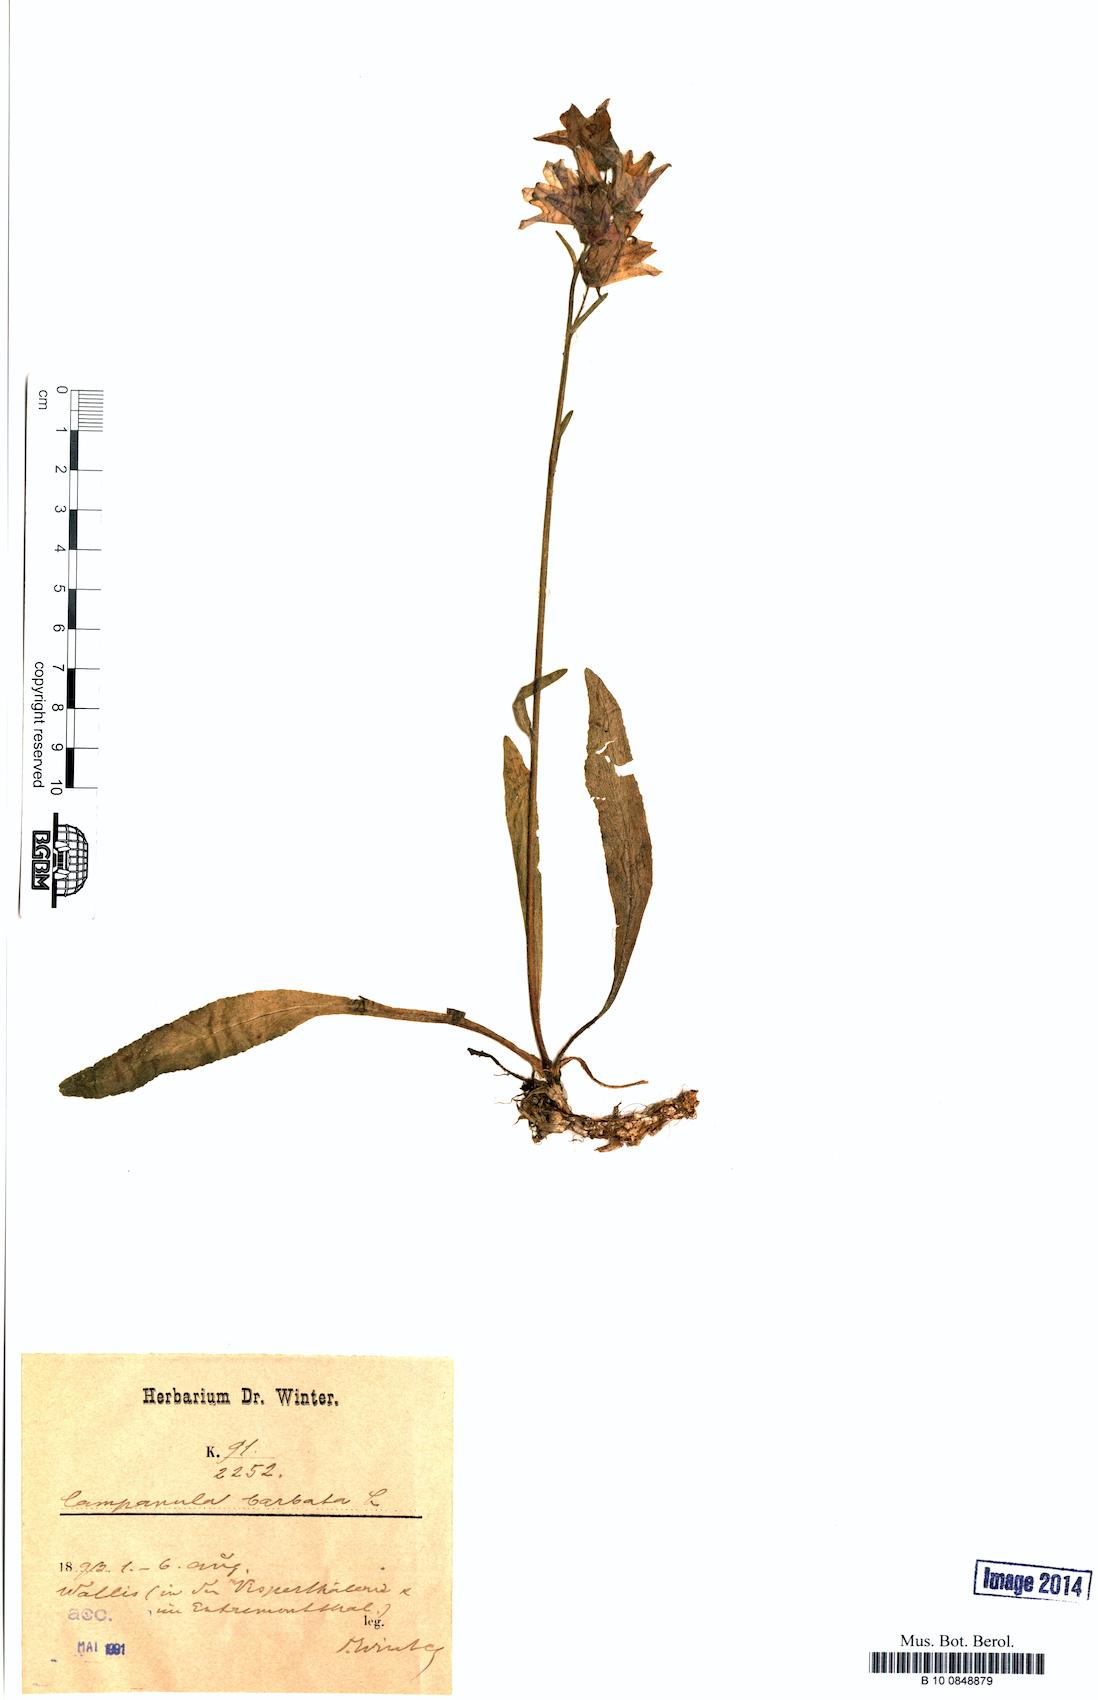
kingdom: Plantae
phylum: Tracheophyta
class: Magnoliopsida
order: Asterales
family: Campanulaceae
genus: Campanula
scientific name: Campanula barbata
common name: Bearded bellflower
